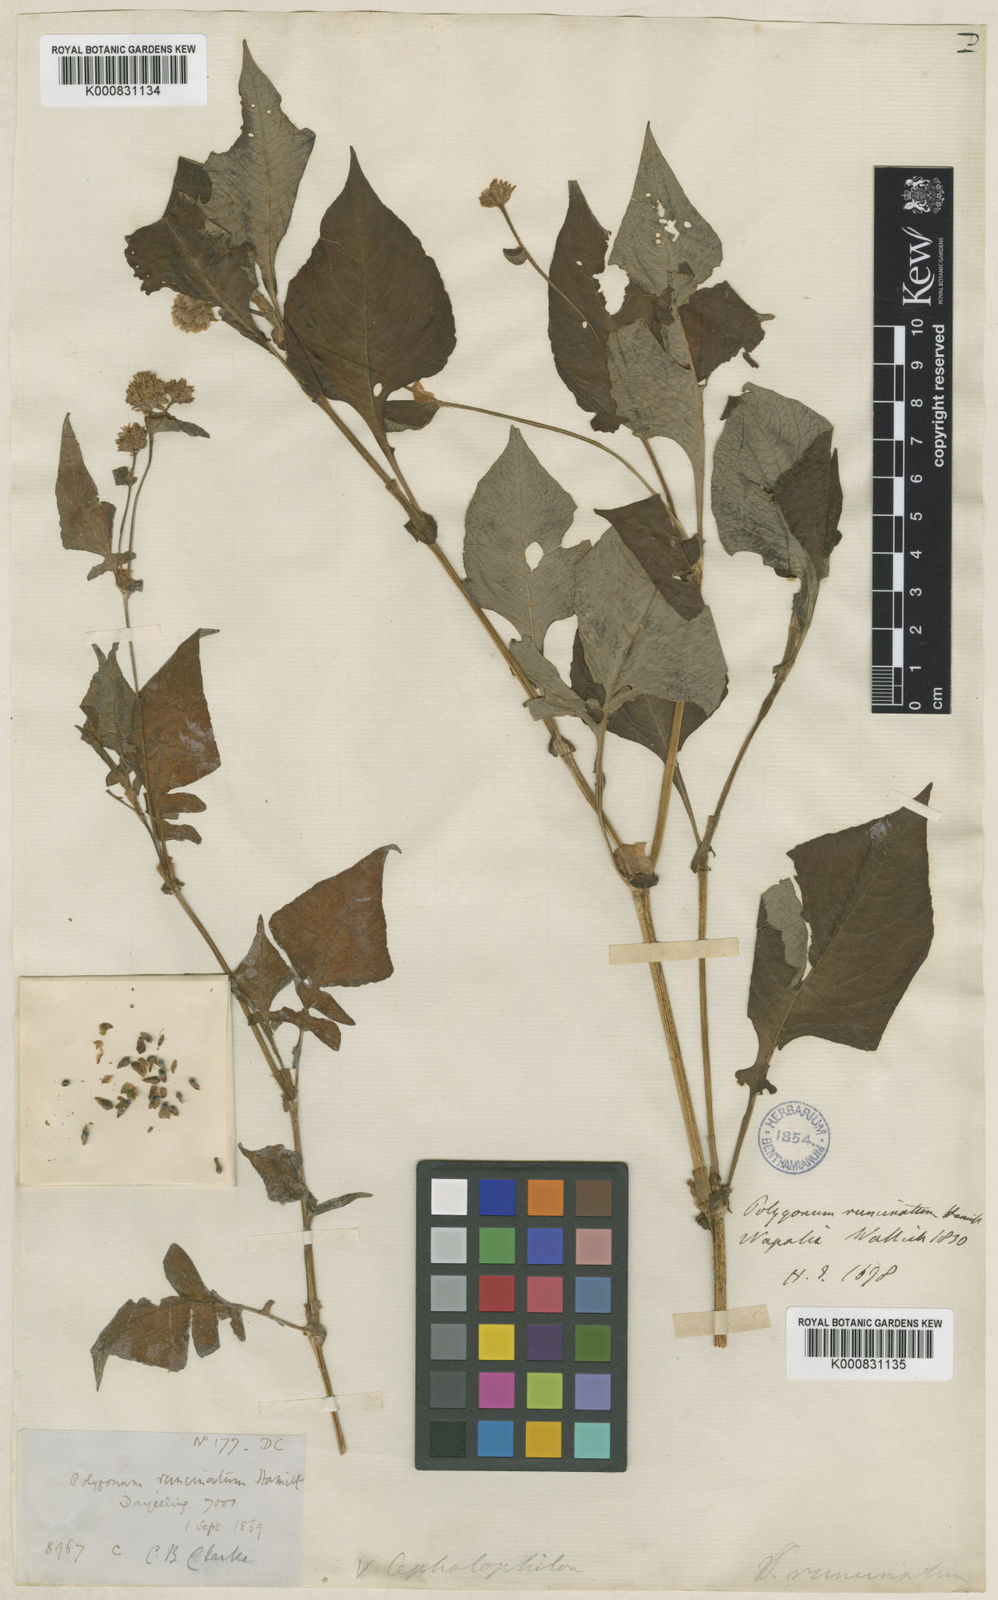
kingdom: Plantae
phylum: Tracheophyta
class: Magnoliopsida
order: Caryophyllales
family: Polygonaceae
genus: Persicaria
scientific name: Persicaria runcinata
